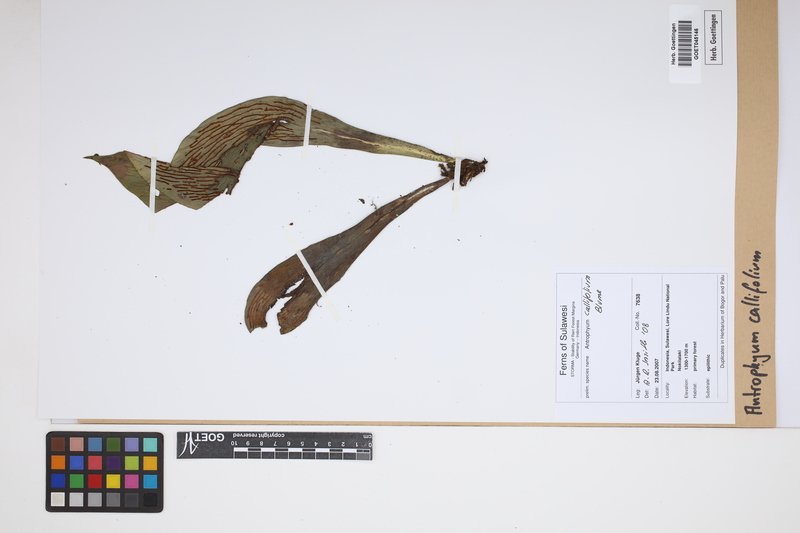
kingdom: Plantae
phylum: Tracheophyta
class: Polypodiopsida
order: Polypodiales
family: Pteridaceae
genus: Antrophyum
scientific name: Antrophyum callifolium
